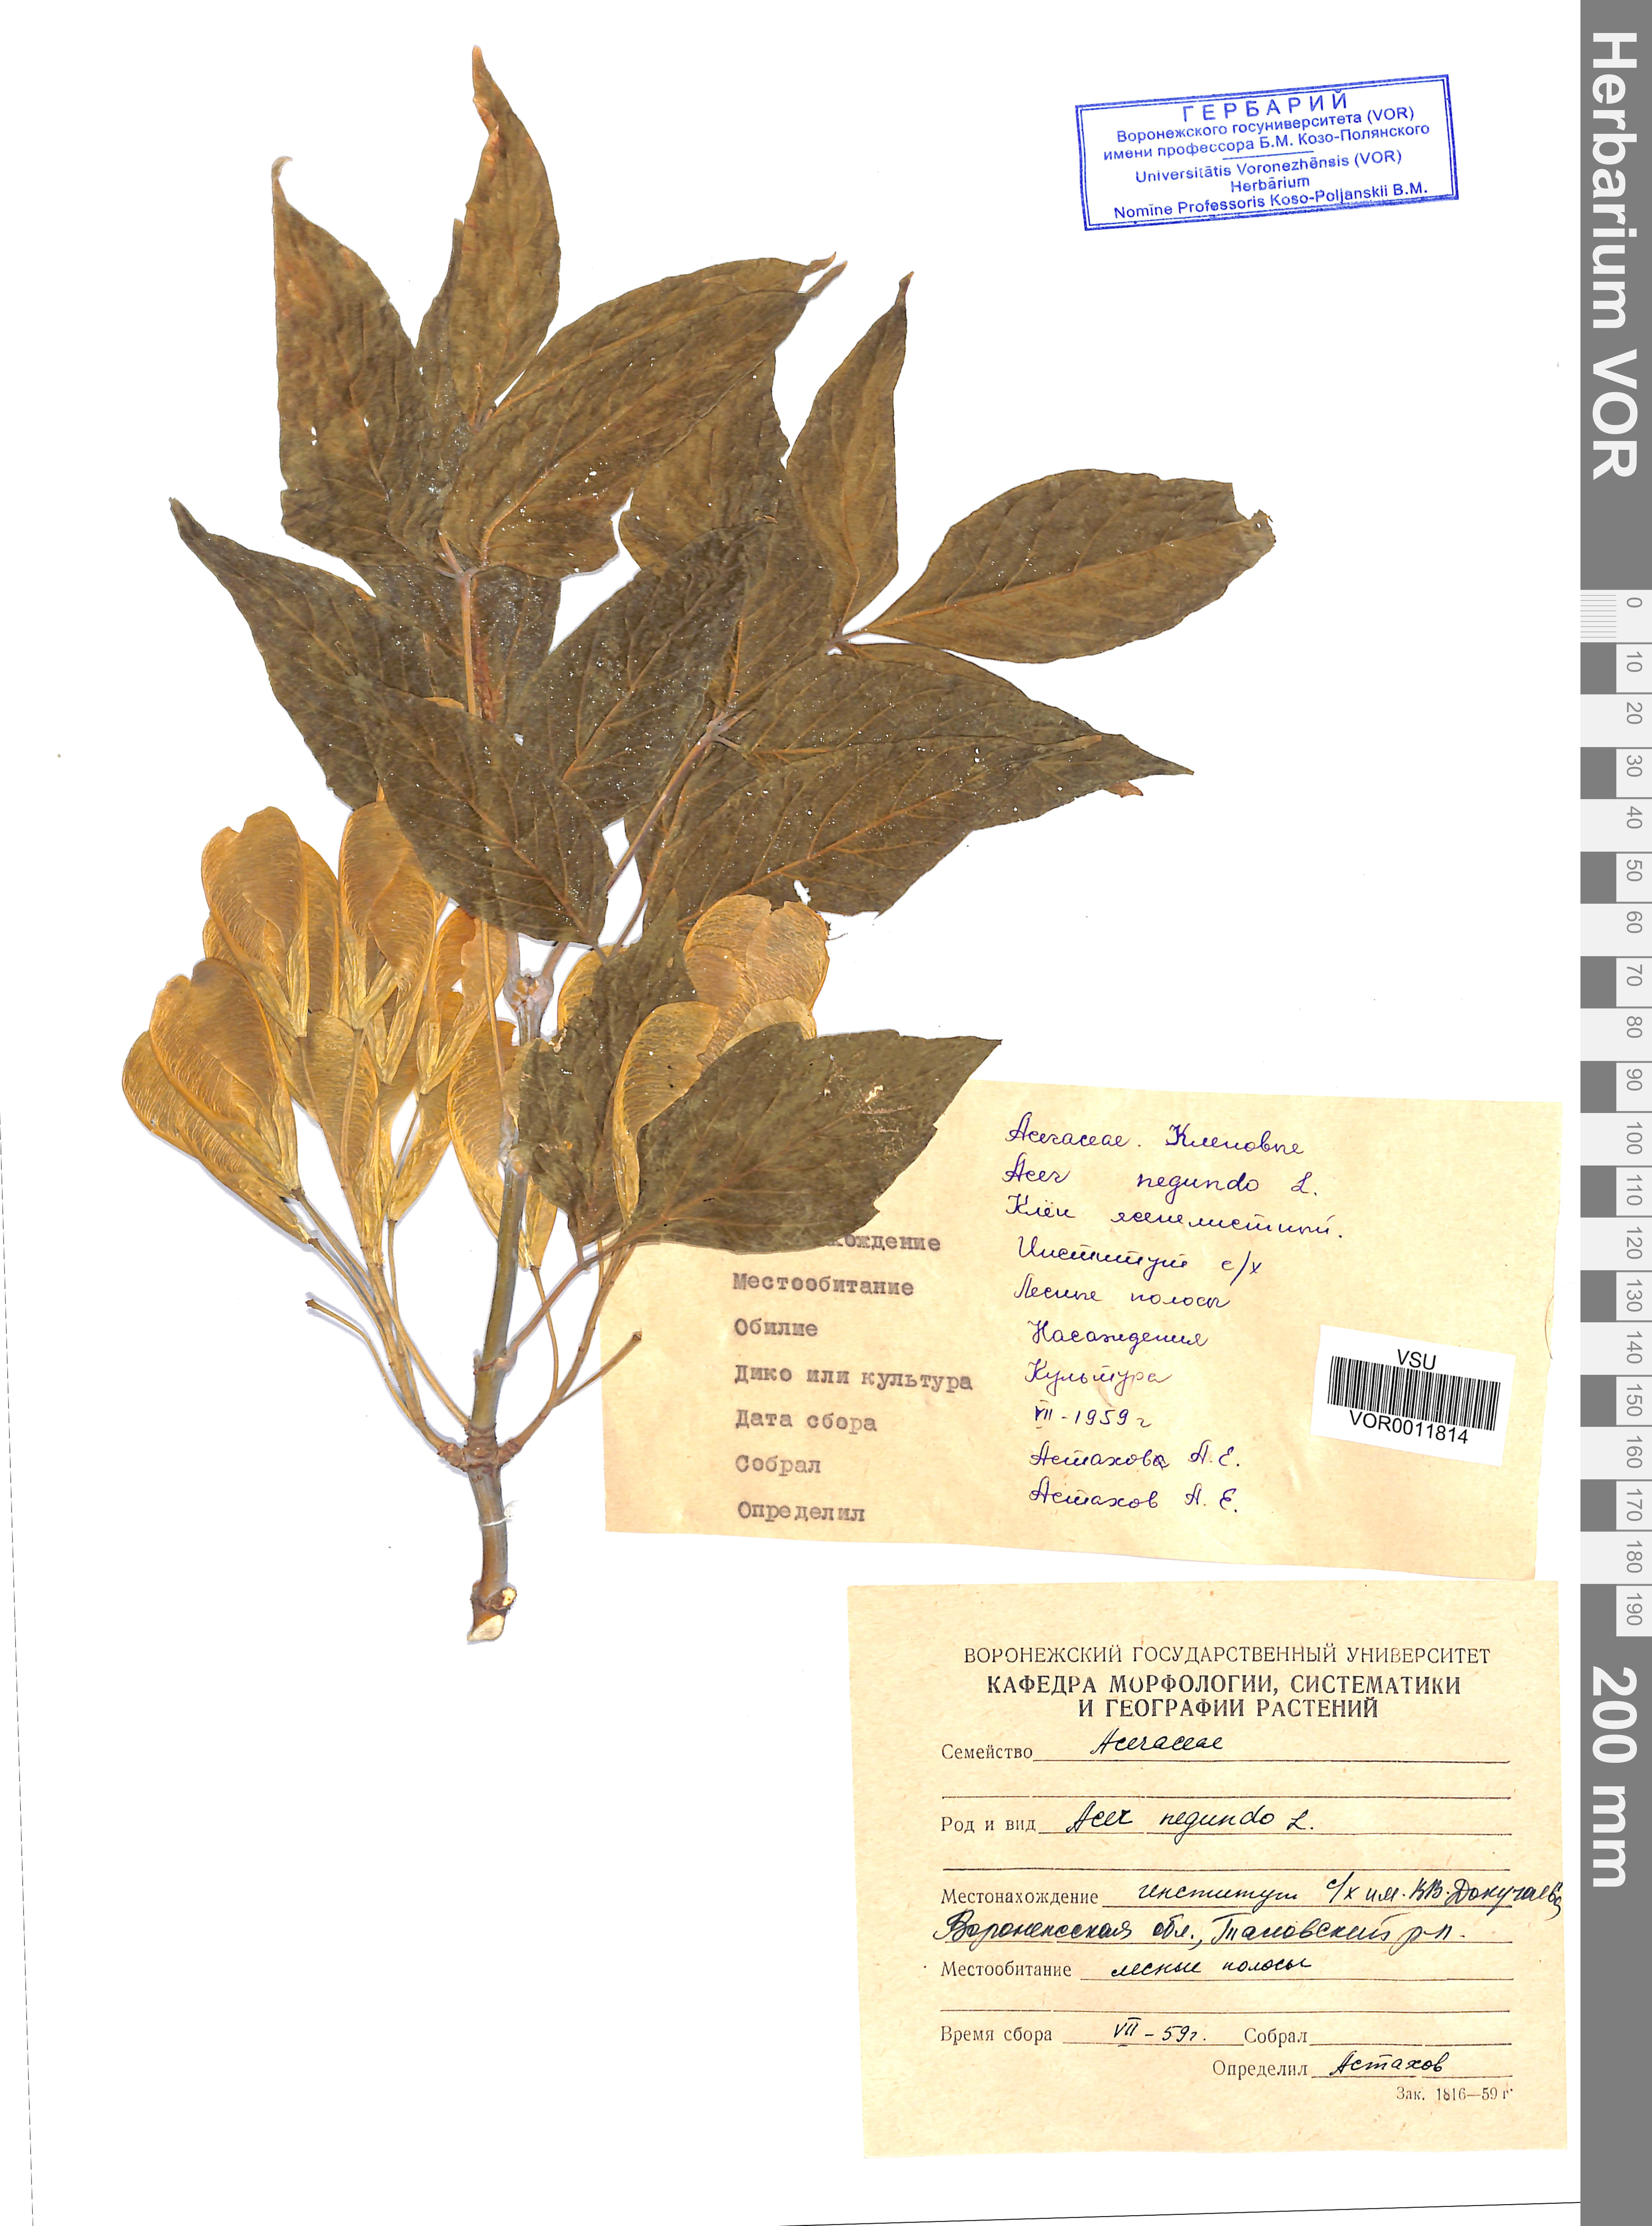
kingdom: Plantae
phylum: Tracheophyta
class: Magnoliopsida
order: Sapindales
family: Sapindaceae
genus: Acer
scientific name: Acer negundo
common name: Ashleaf maple
